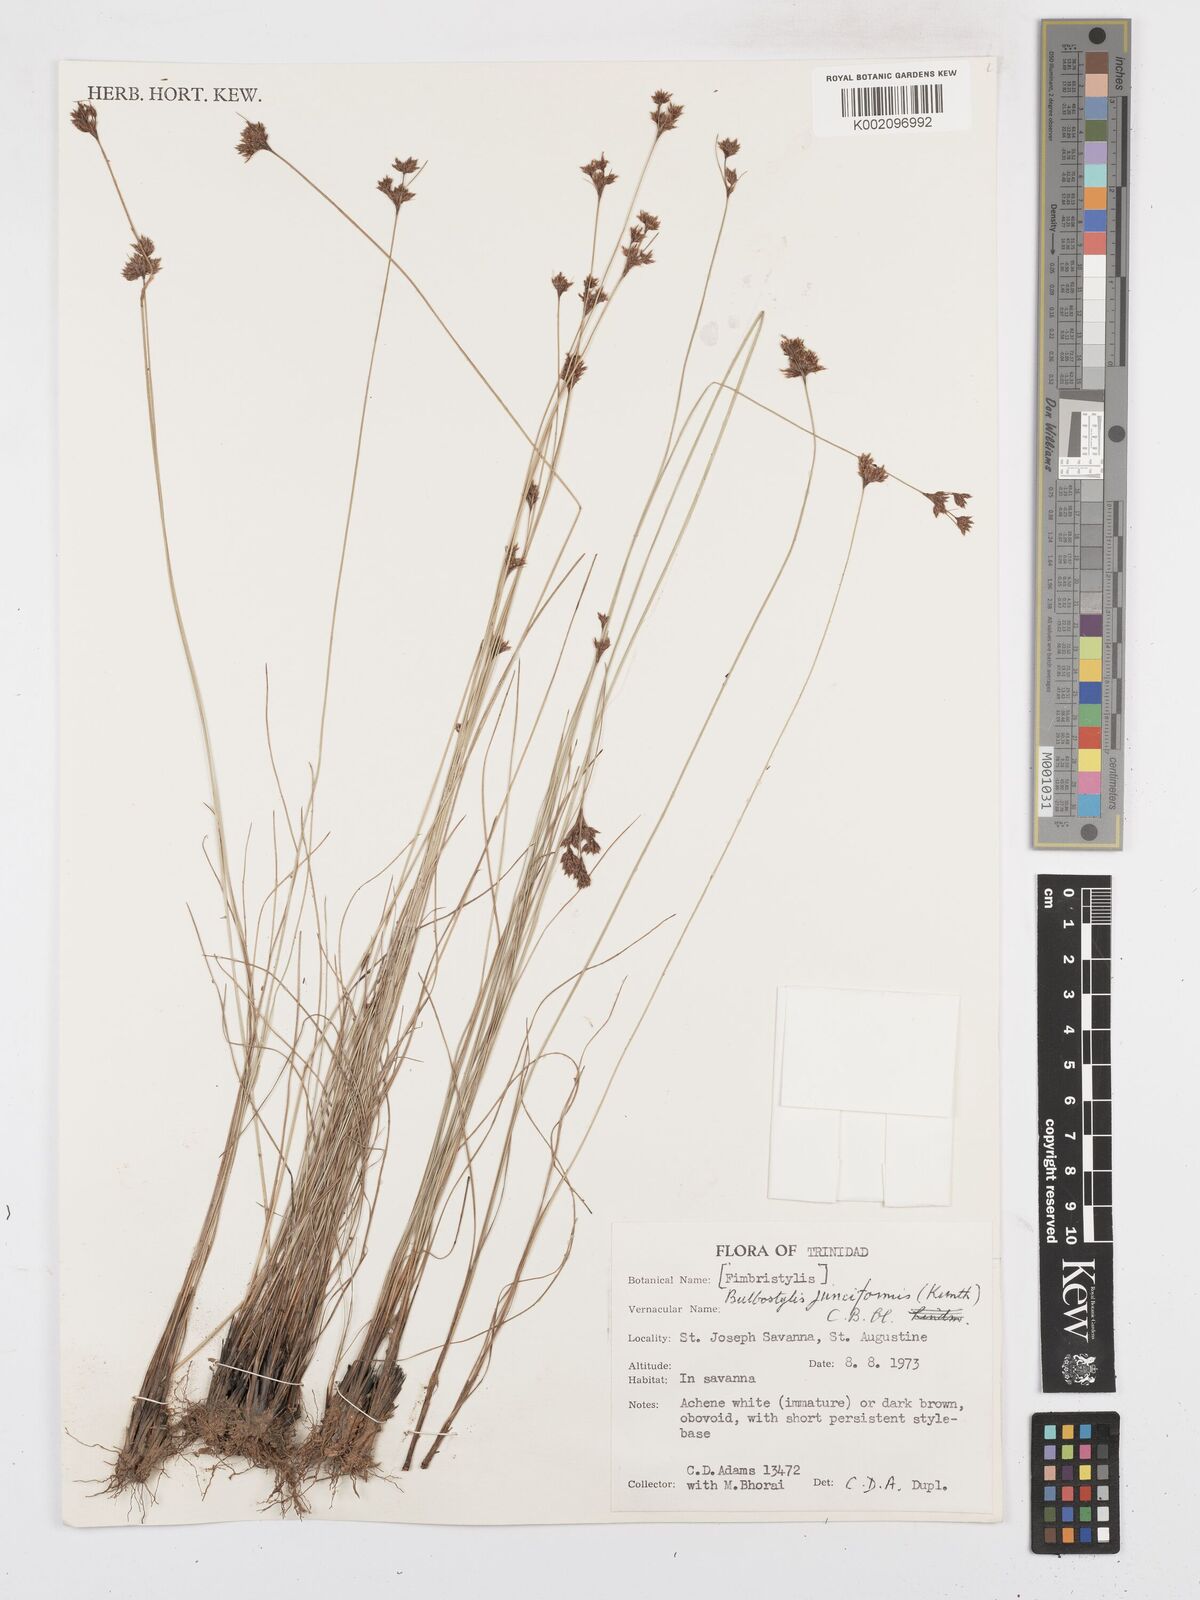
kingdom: Plantae
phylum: Tracheophyta
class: Liliopsida
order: Poales
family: Cyperaceae
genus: Bulbostylis
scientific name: Bulbostylis junciformis
